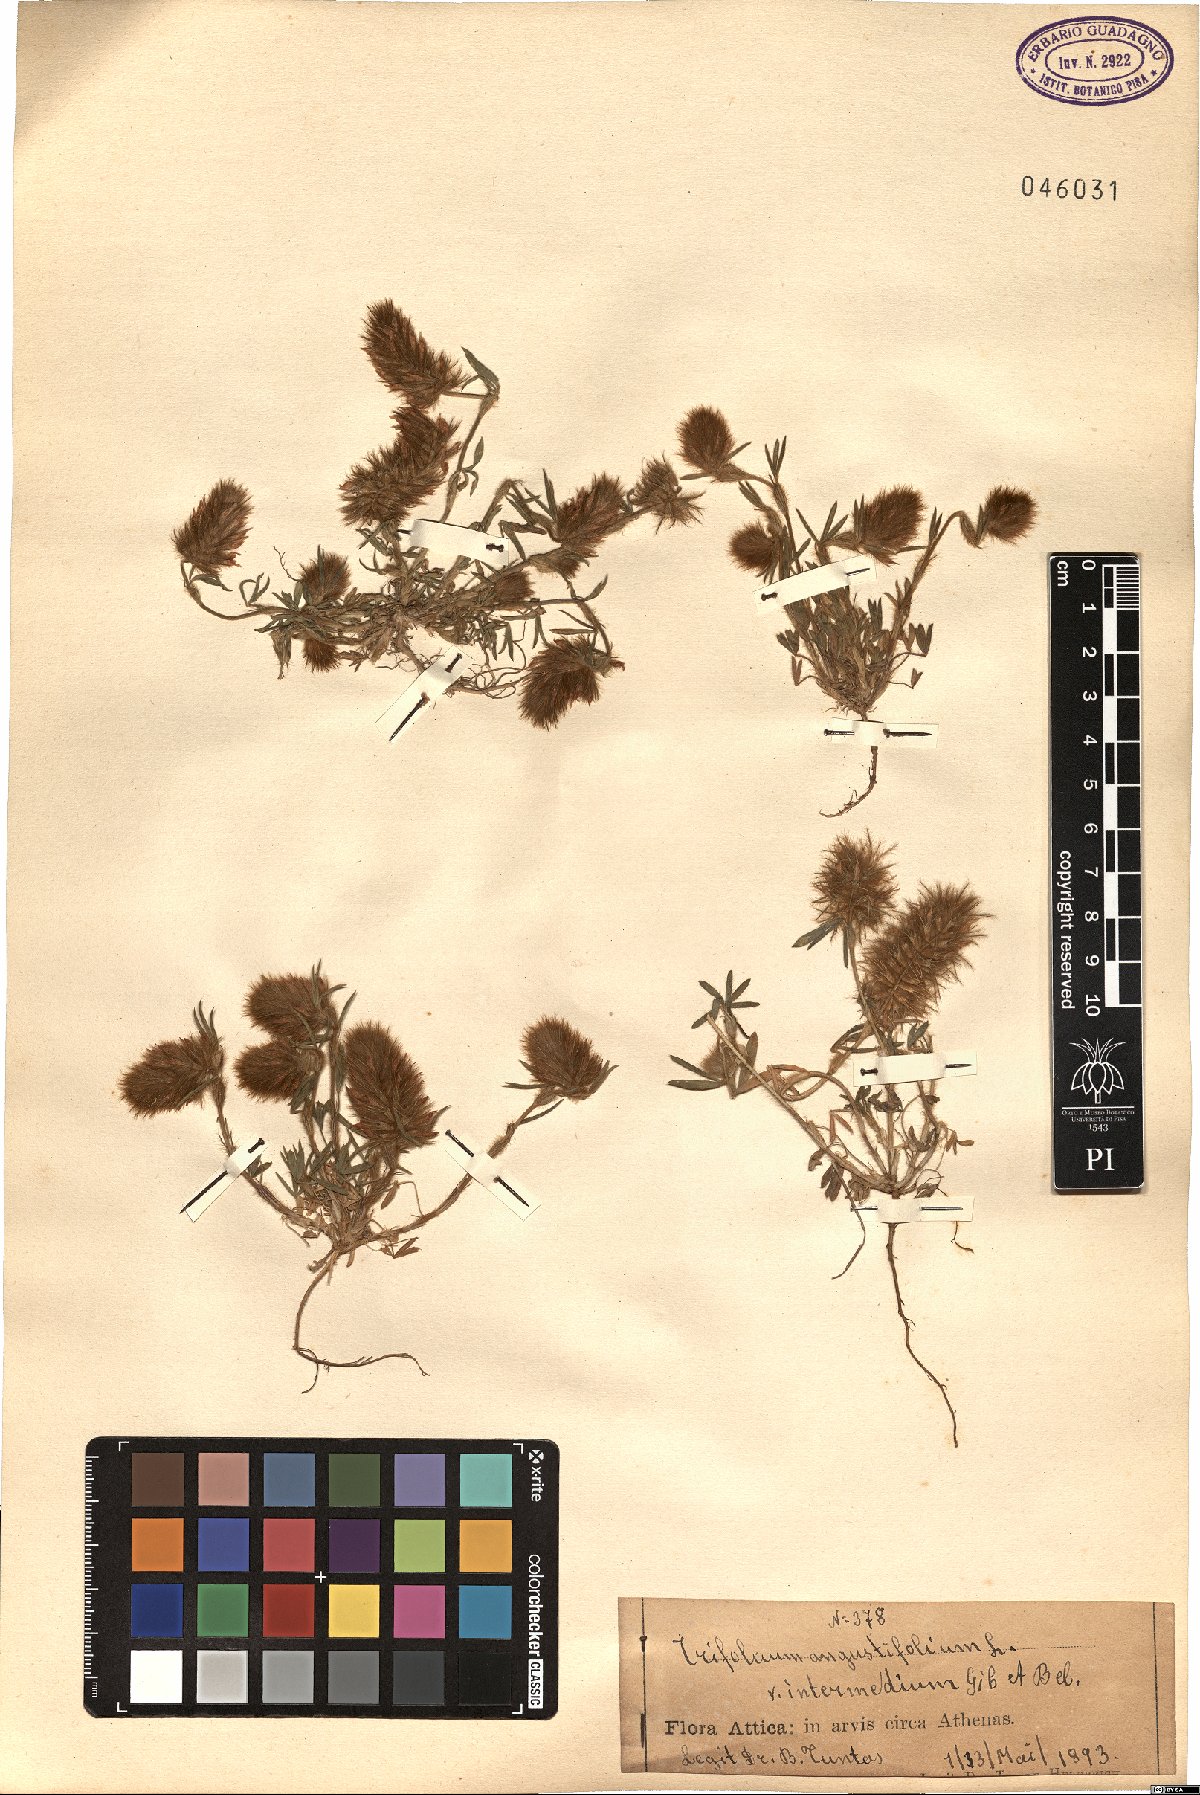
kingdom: Plantae
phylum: Tracheophyta
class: Magnoliopsida
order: Fabales
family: Fabaceae
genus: Trifolium
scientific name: Trifolium infamia-ponertii
